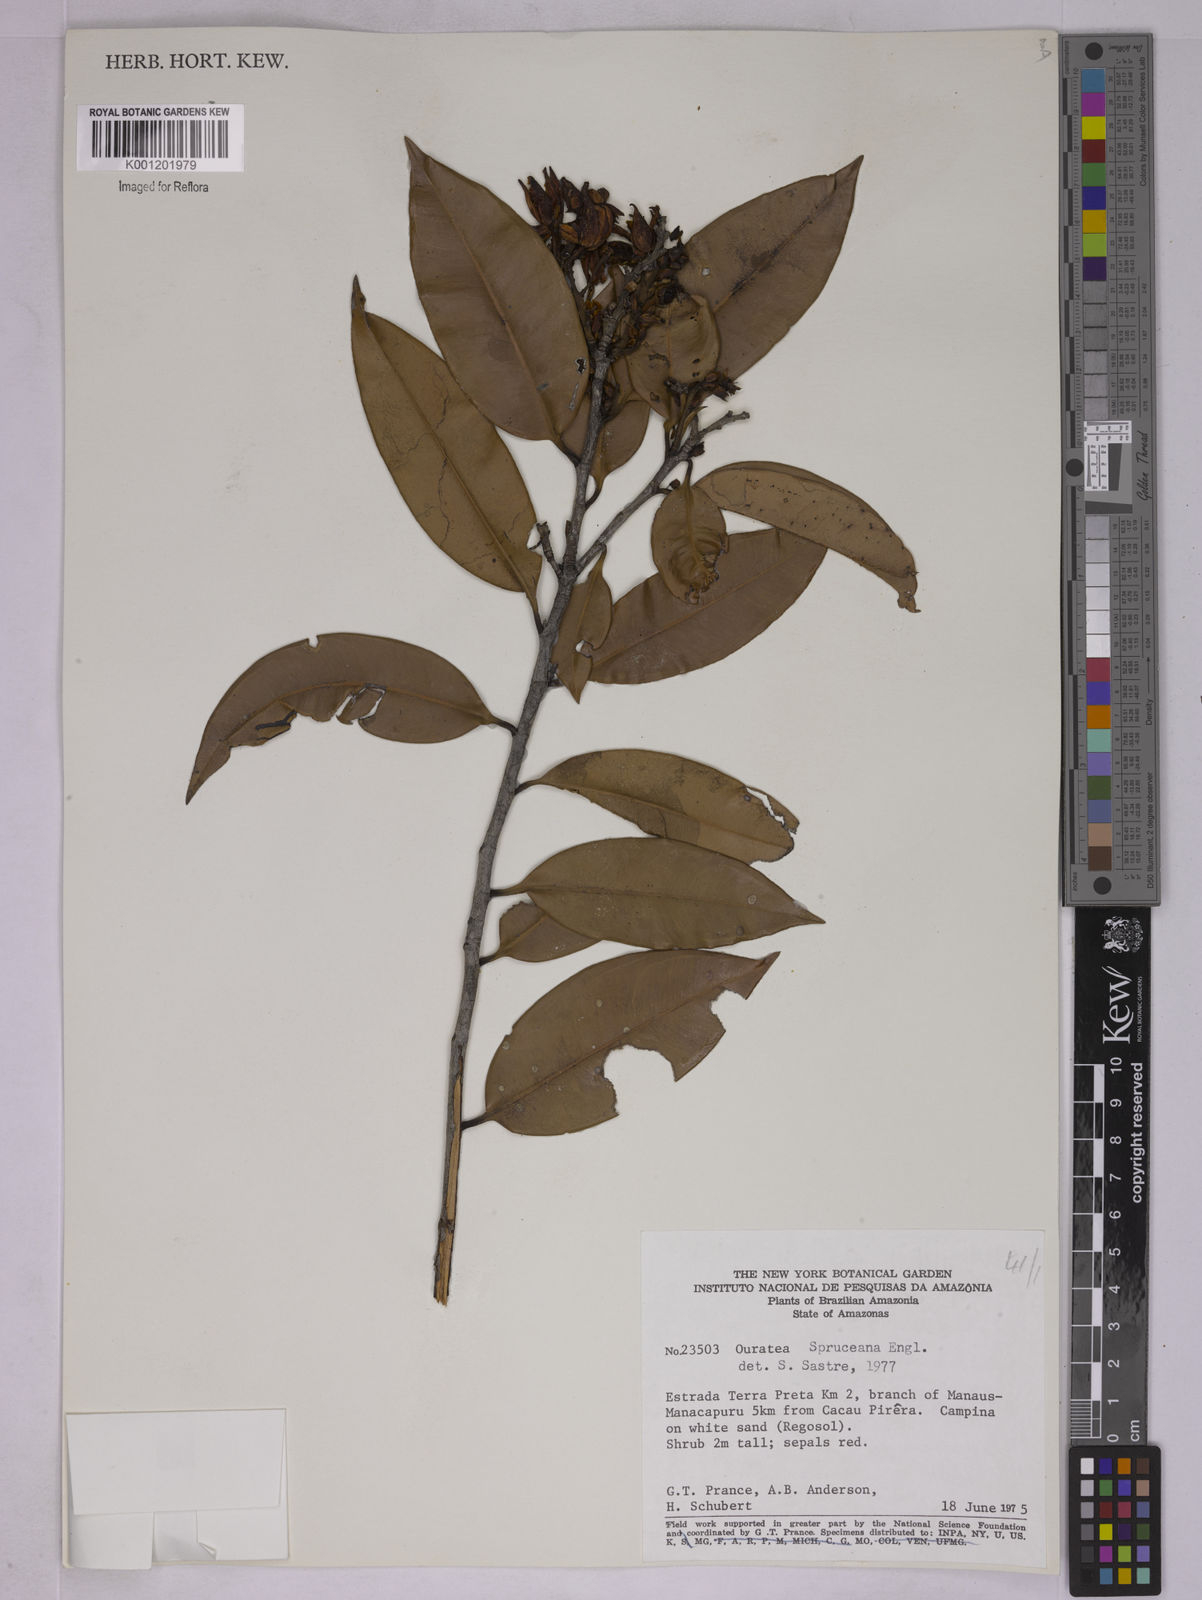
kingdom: Plantae
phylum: Tracheophyta
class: Magnoliopsida
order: Malpighiales
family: Ochnaceae
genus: Ouratea
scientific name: Ouratea spruceana
